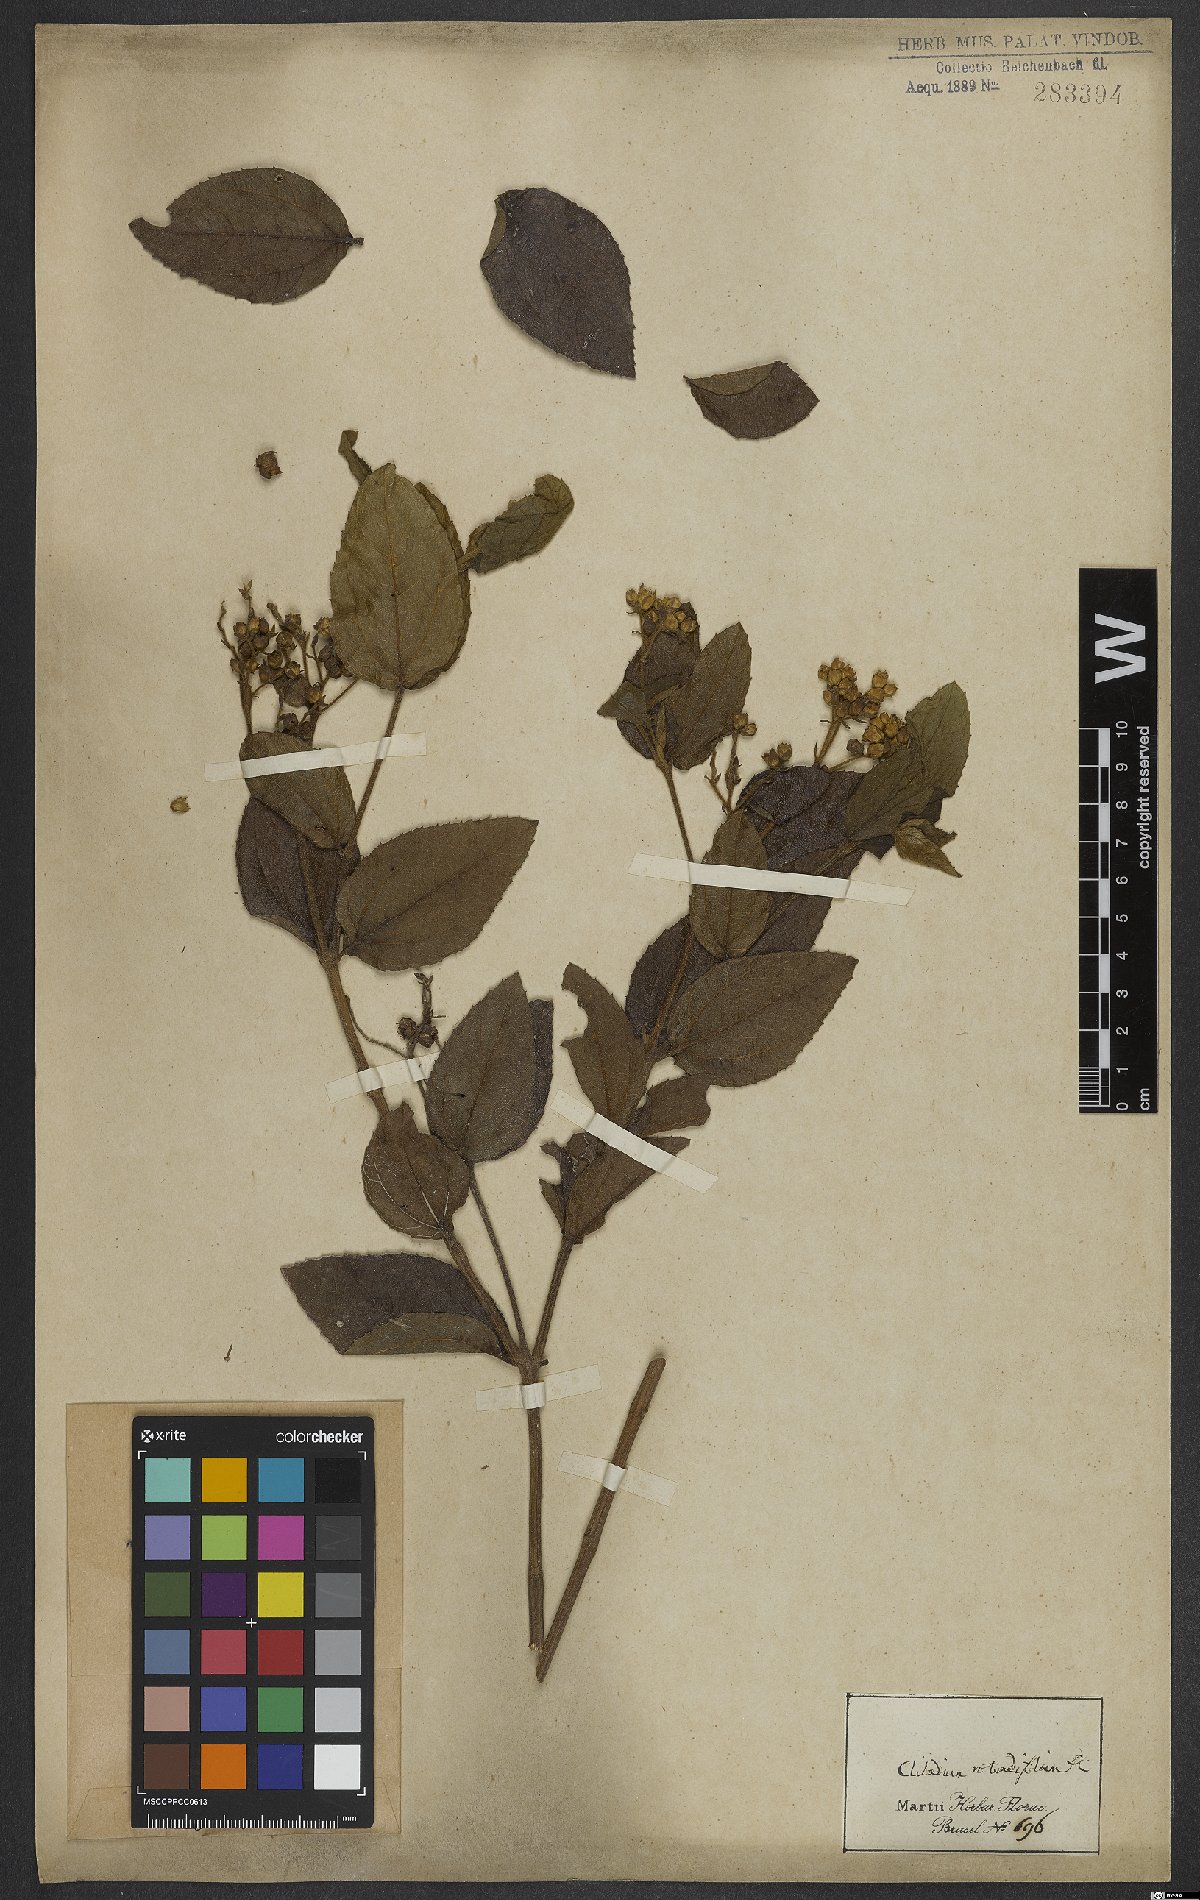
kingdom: Plantae
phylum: Tracheophyta
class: Magnoliopsida
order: Asterales
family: Asteraceae
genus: Clibadium
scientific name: Clibadium armanii
